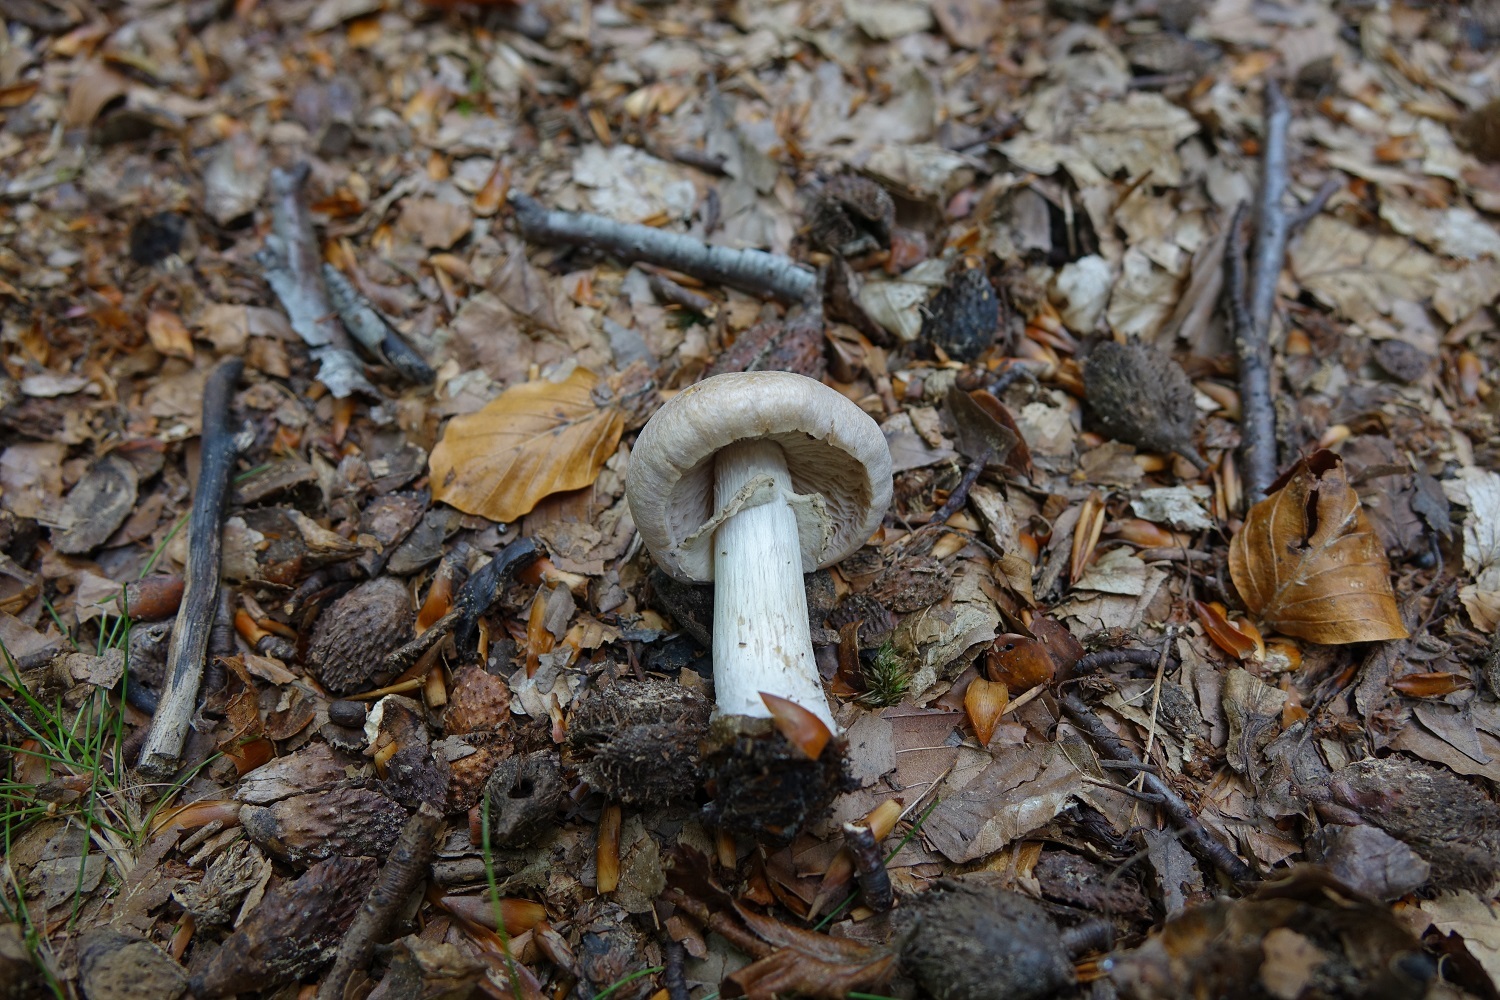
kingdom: Fungi
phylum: Basidiomycota
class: Agaricomycetes
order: Agaricales
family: Cortinariaceae
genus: Cortinarius
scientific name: Cortinarius caperatus
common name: The gypsy
